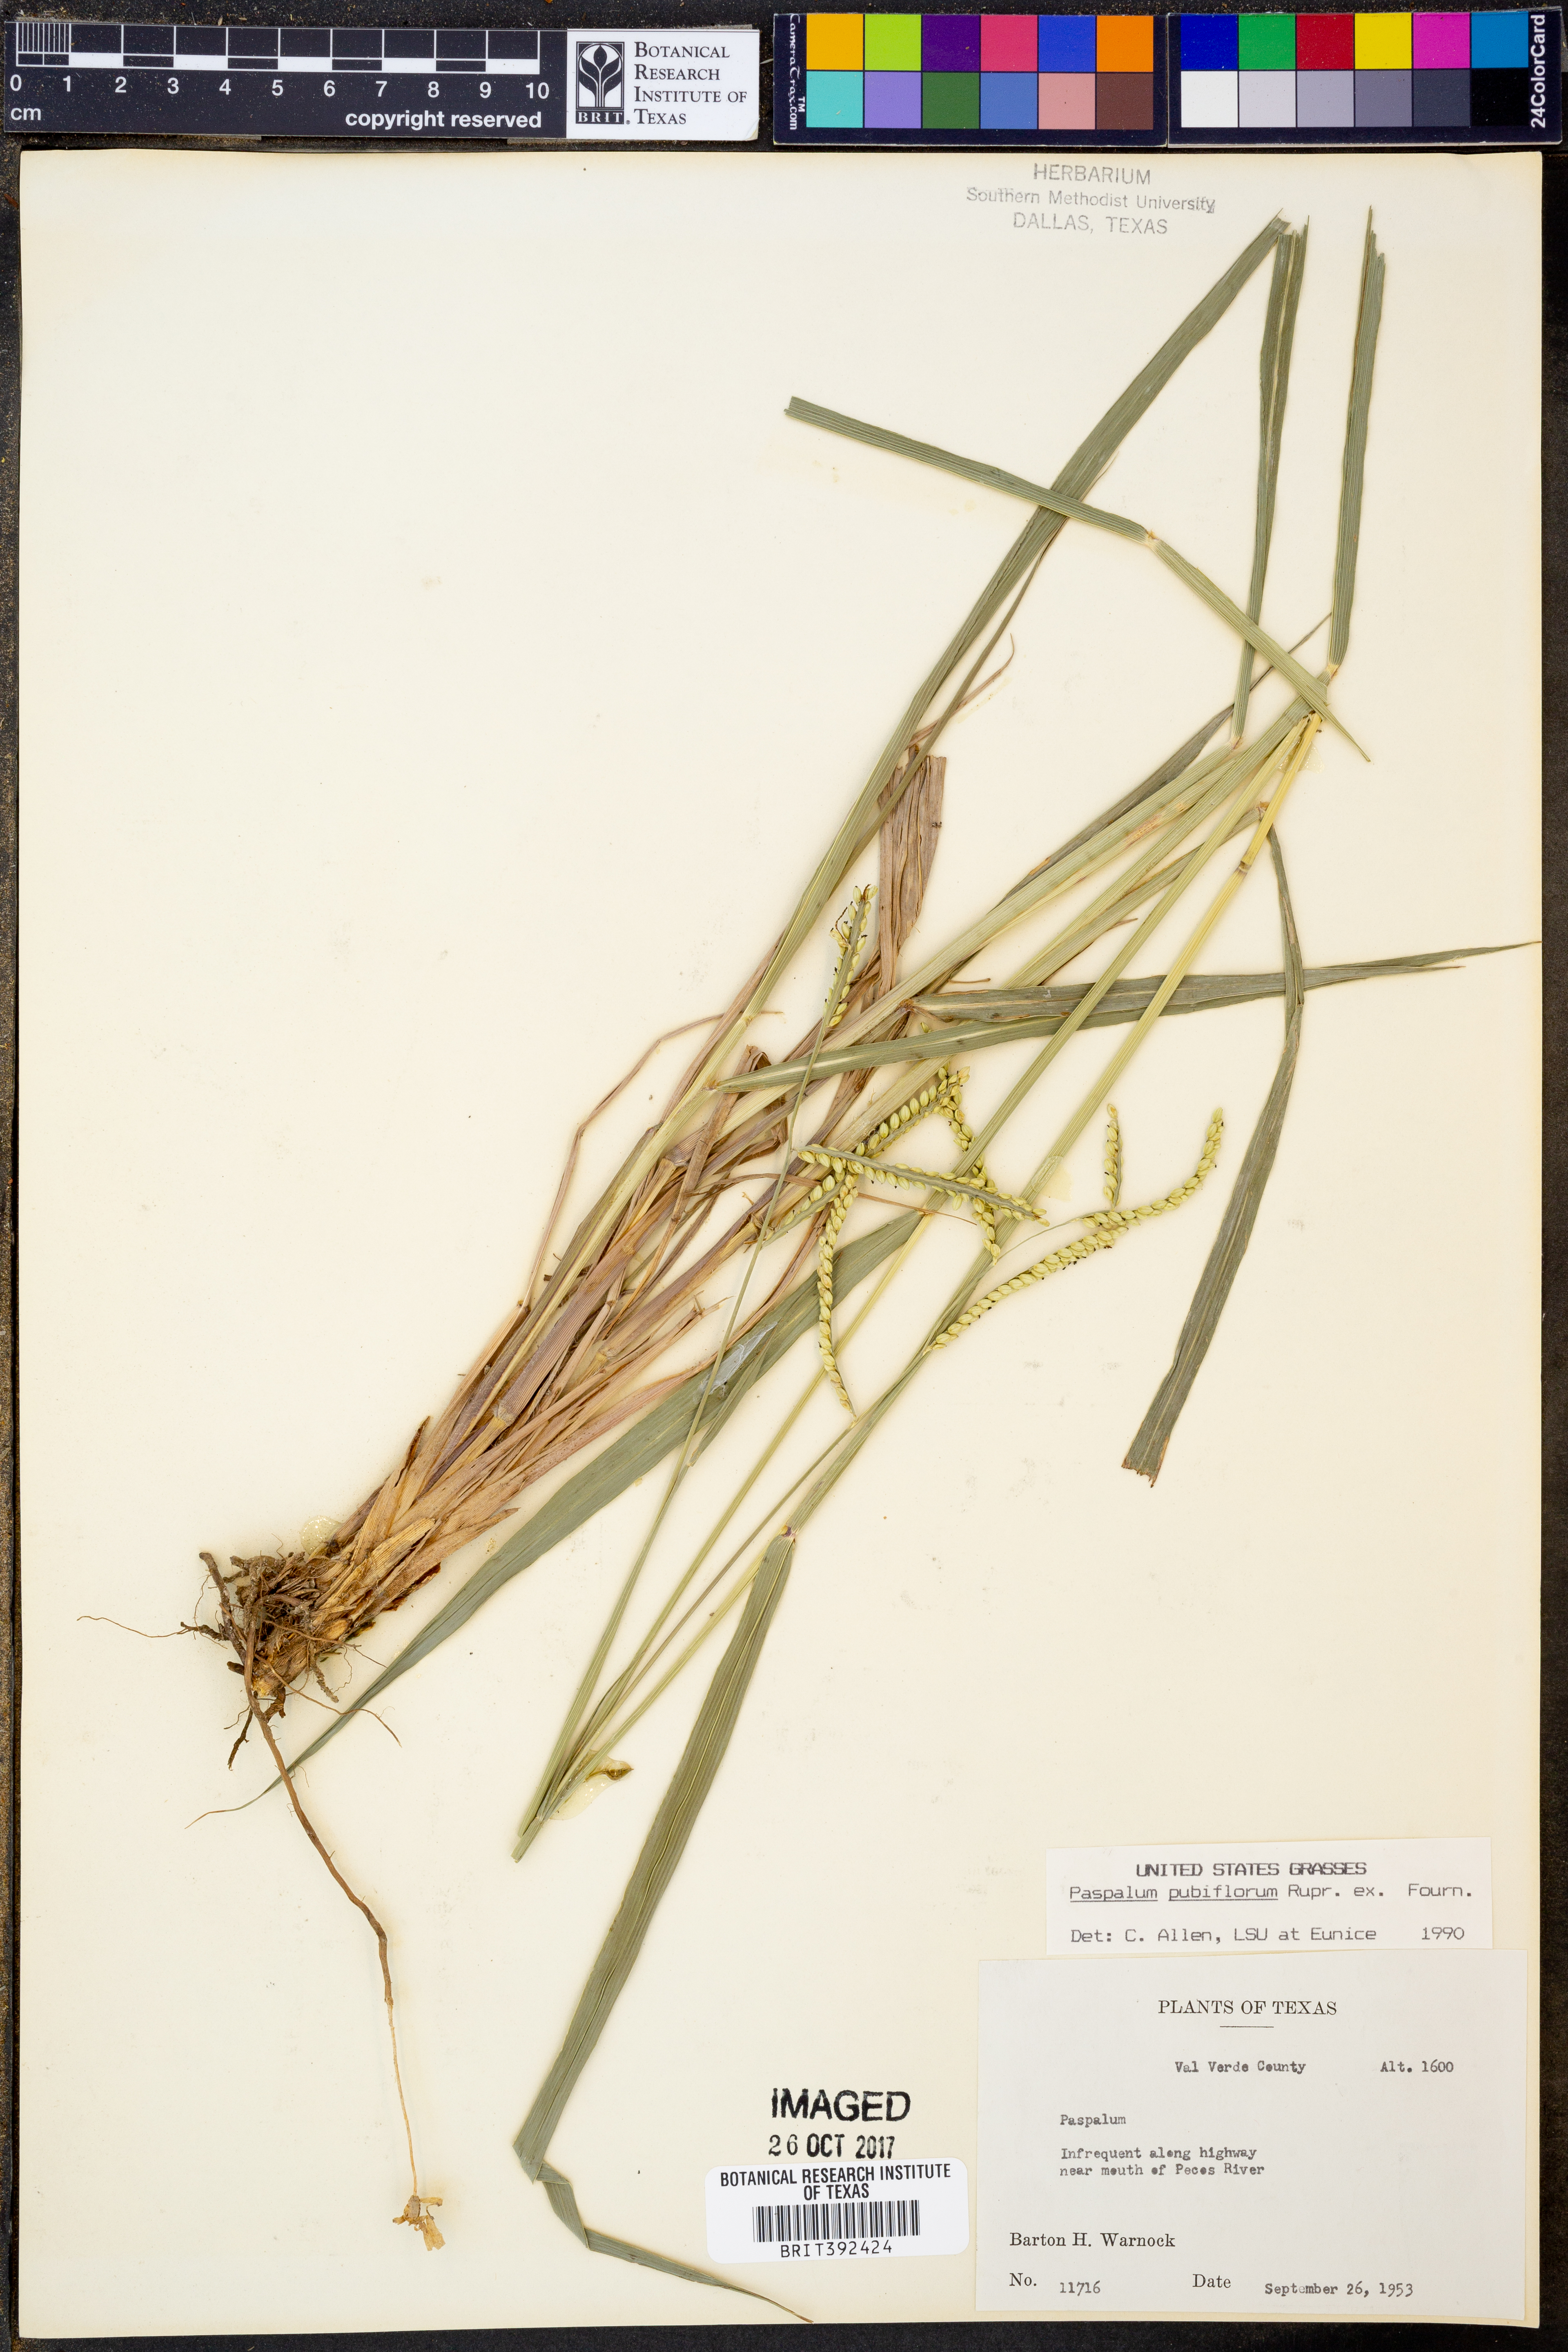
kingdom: Plantae
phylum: Tracheophyta
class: Liliopsida
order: Poales
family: Poaceae
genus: Paspalum
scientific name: Paspalum pubiflorum
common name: Hairy-seed paspalum
